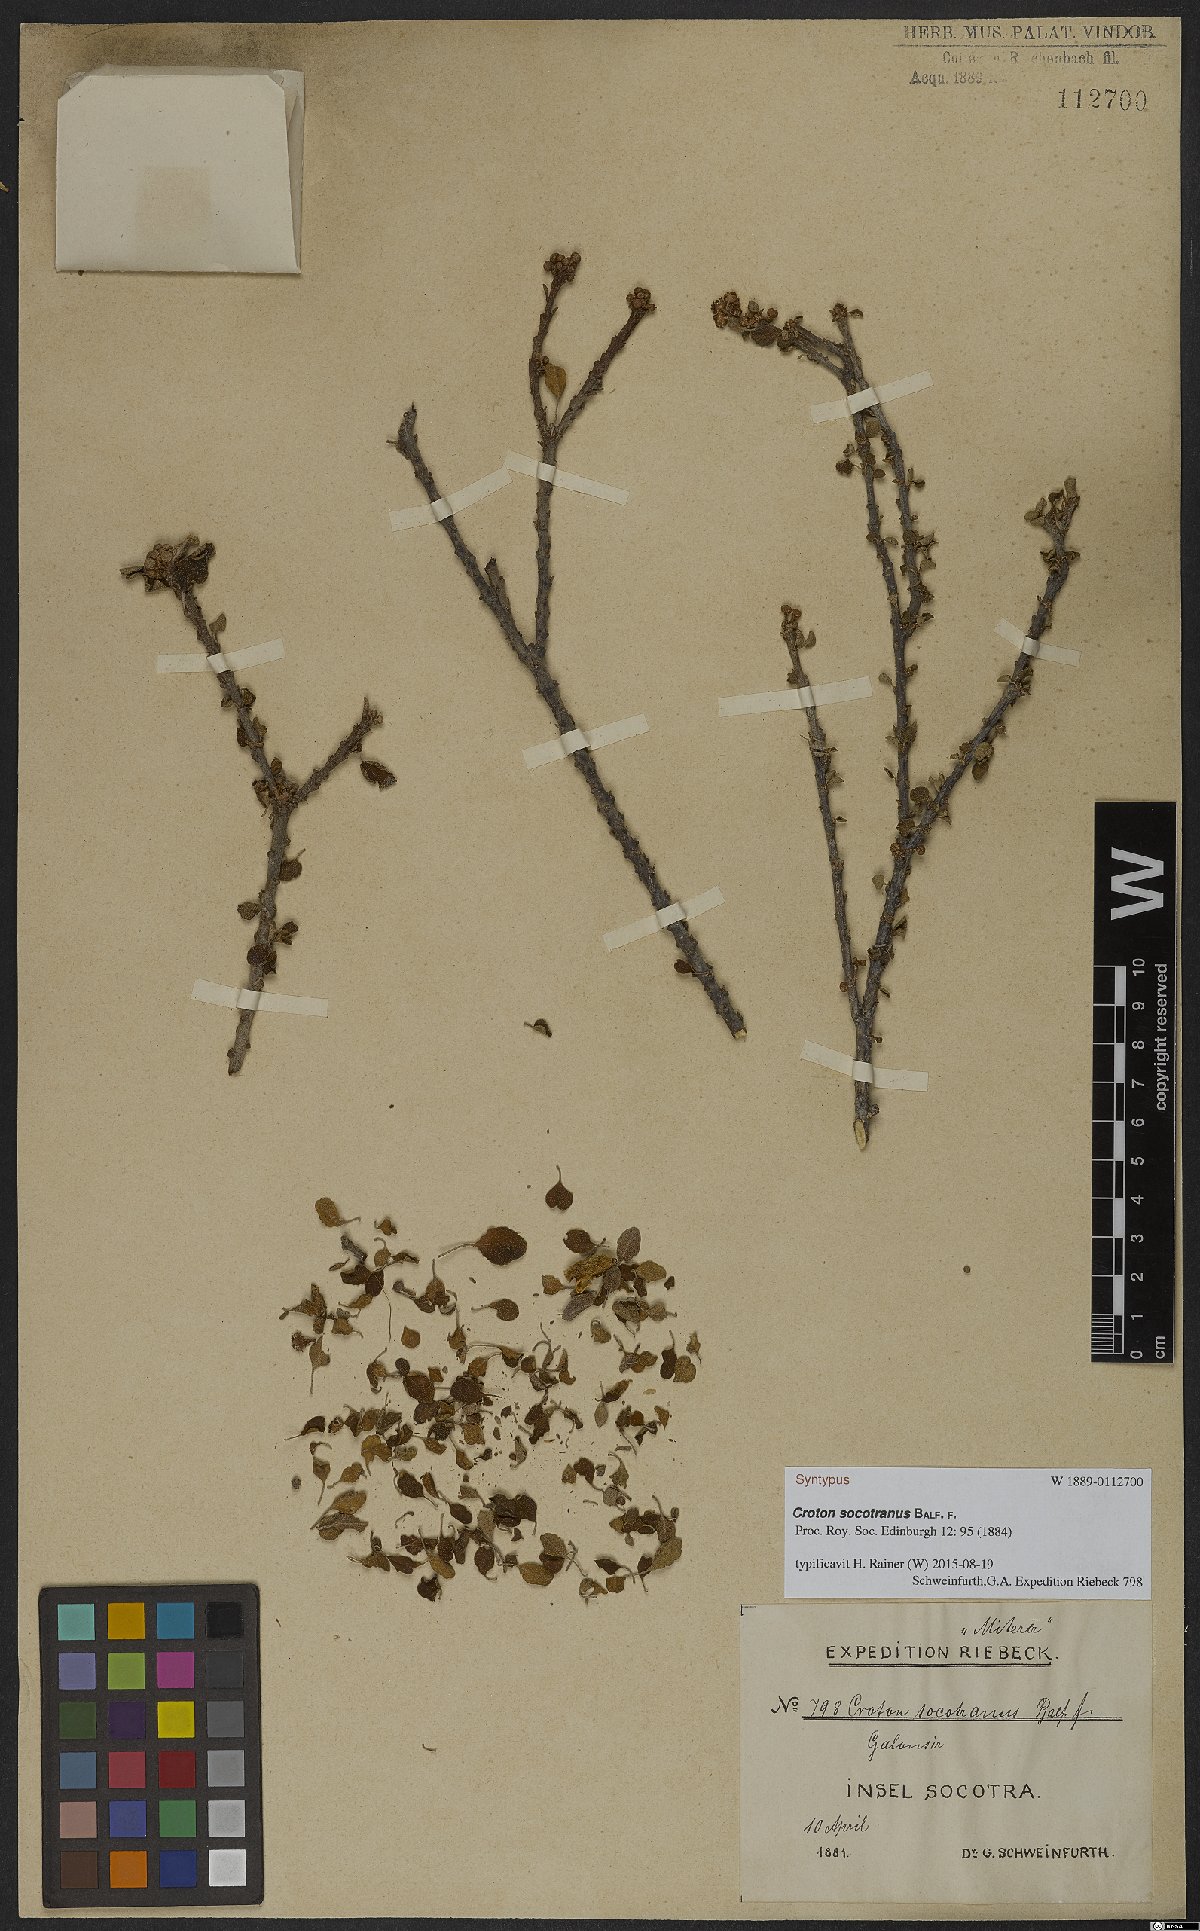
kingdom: Plantae
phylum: Tracheophyta
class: Magnoliopsida
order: Malpighiales
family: Euphorbiaceae
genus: Croton
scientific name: Croton socotranus
